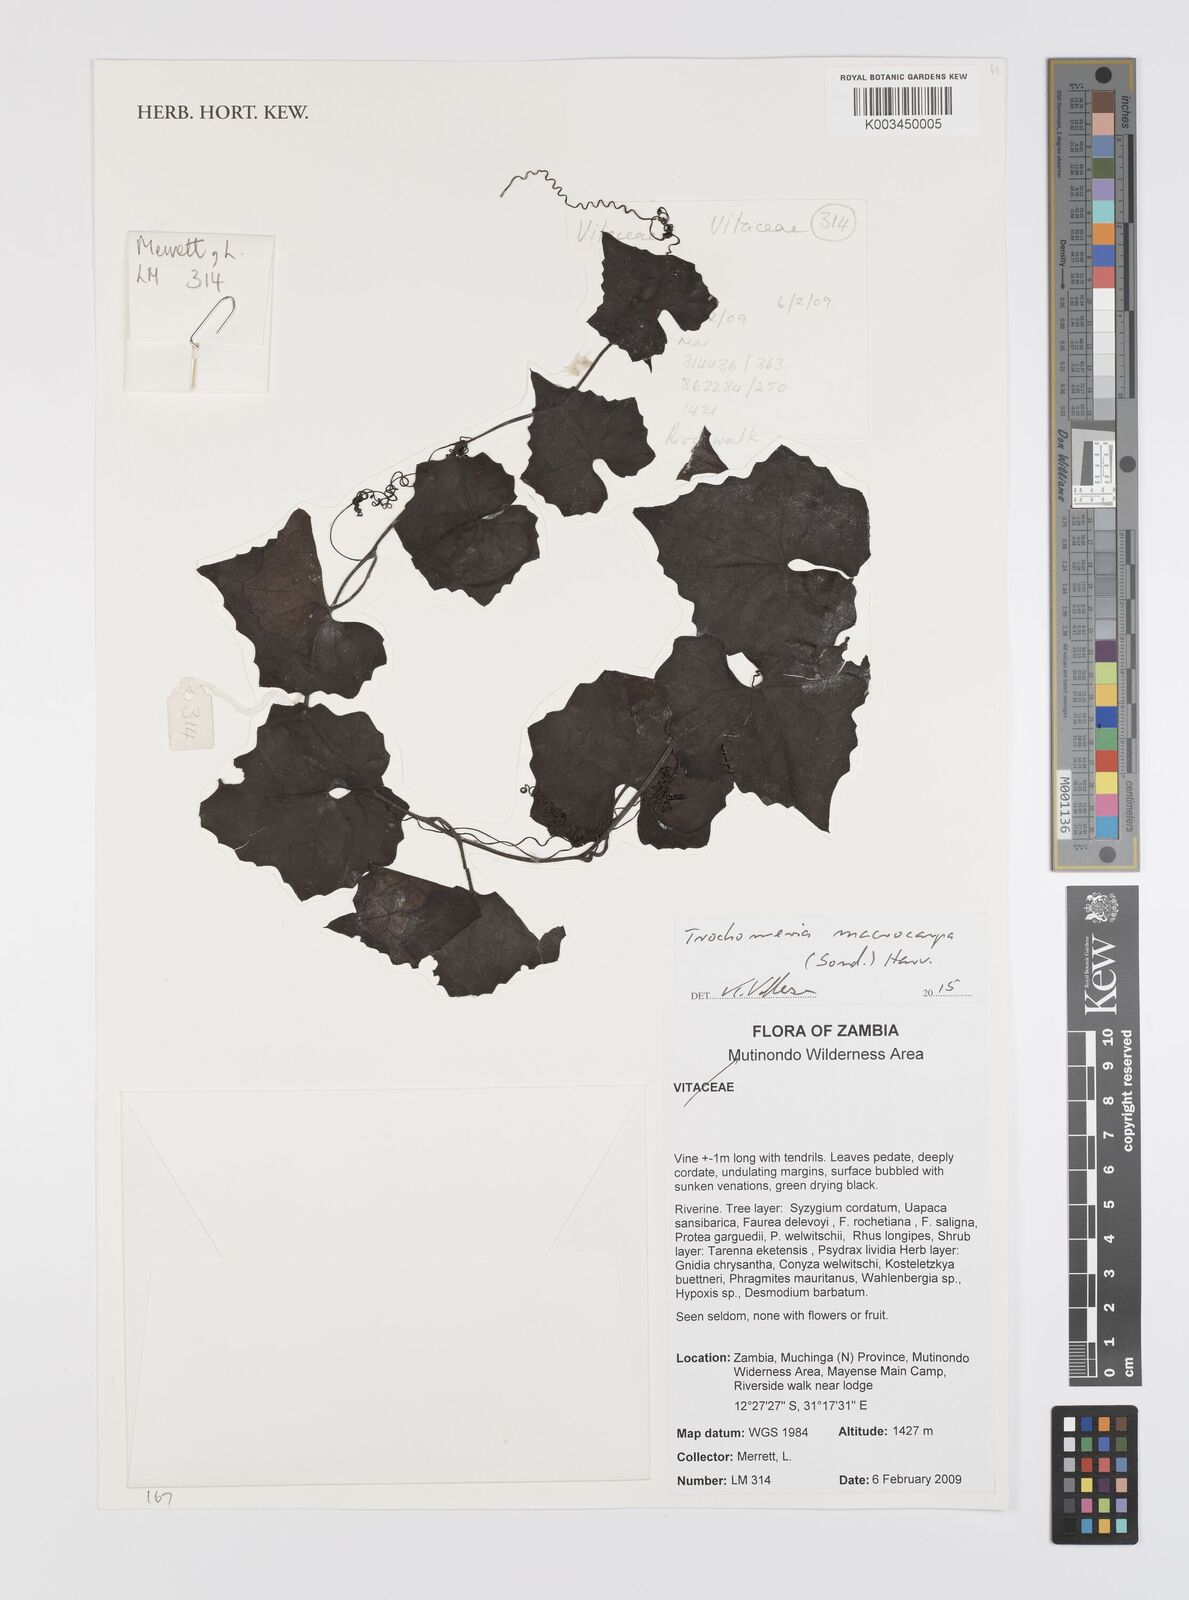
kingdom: Plantae
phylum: Tracheophyta
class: Magnoliopsida
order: Cucurbitales
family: Cucurbitaceae
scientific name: Cucurbitaceae
